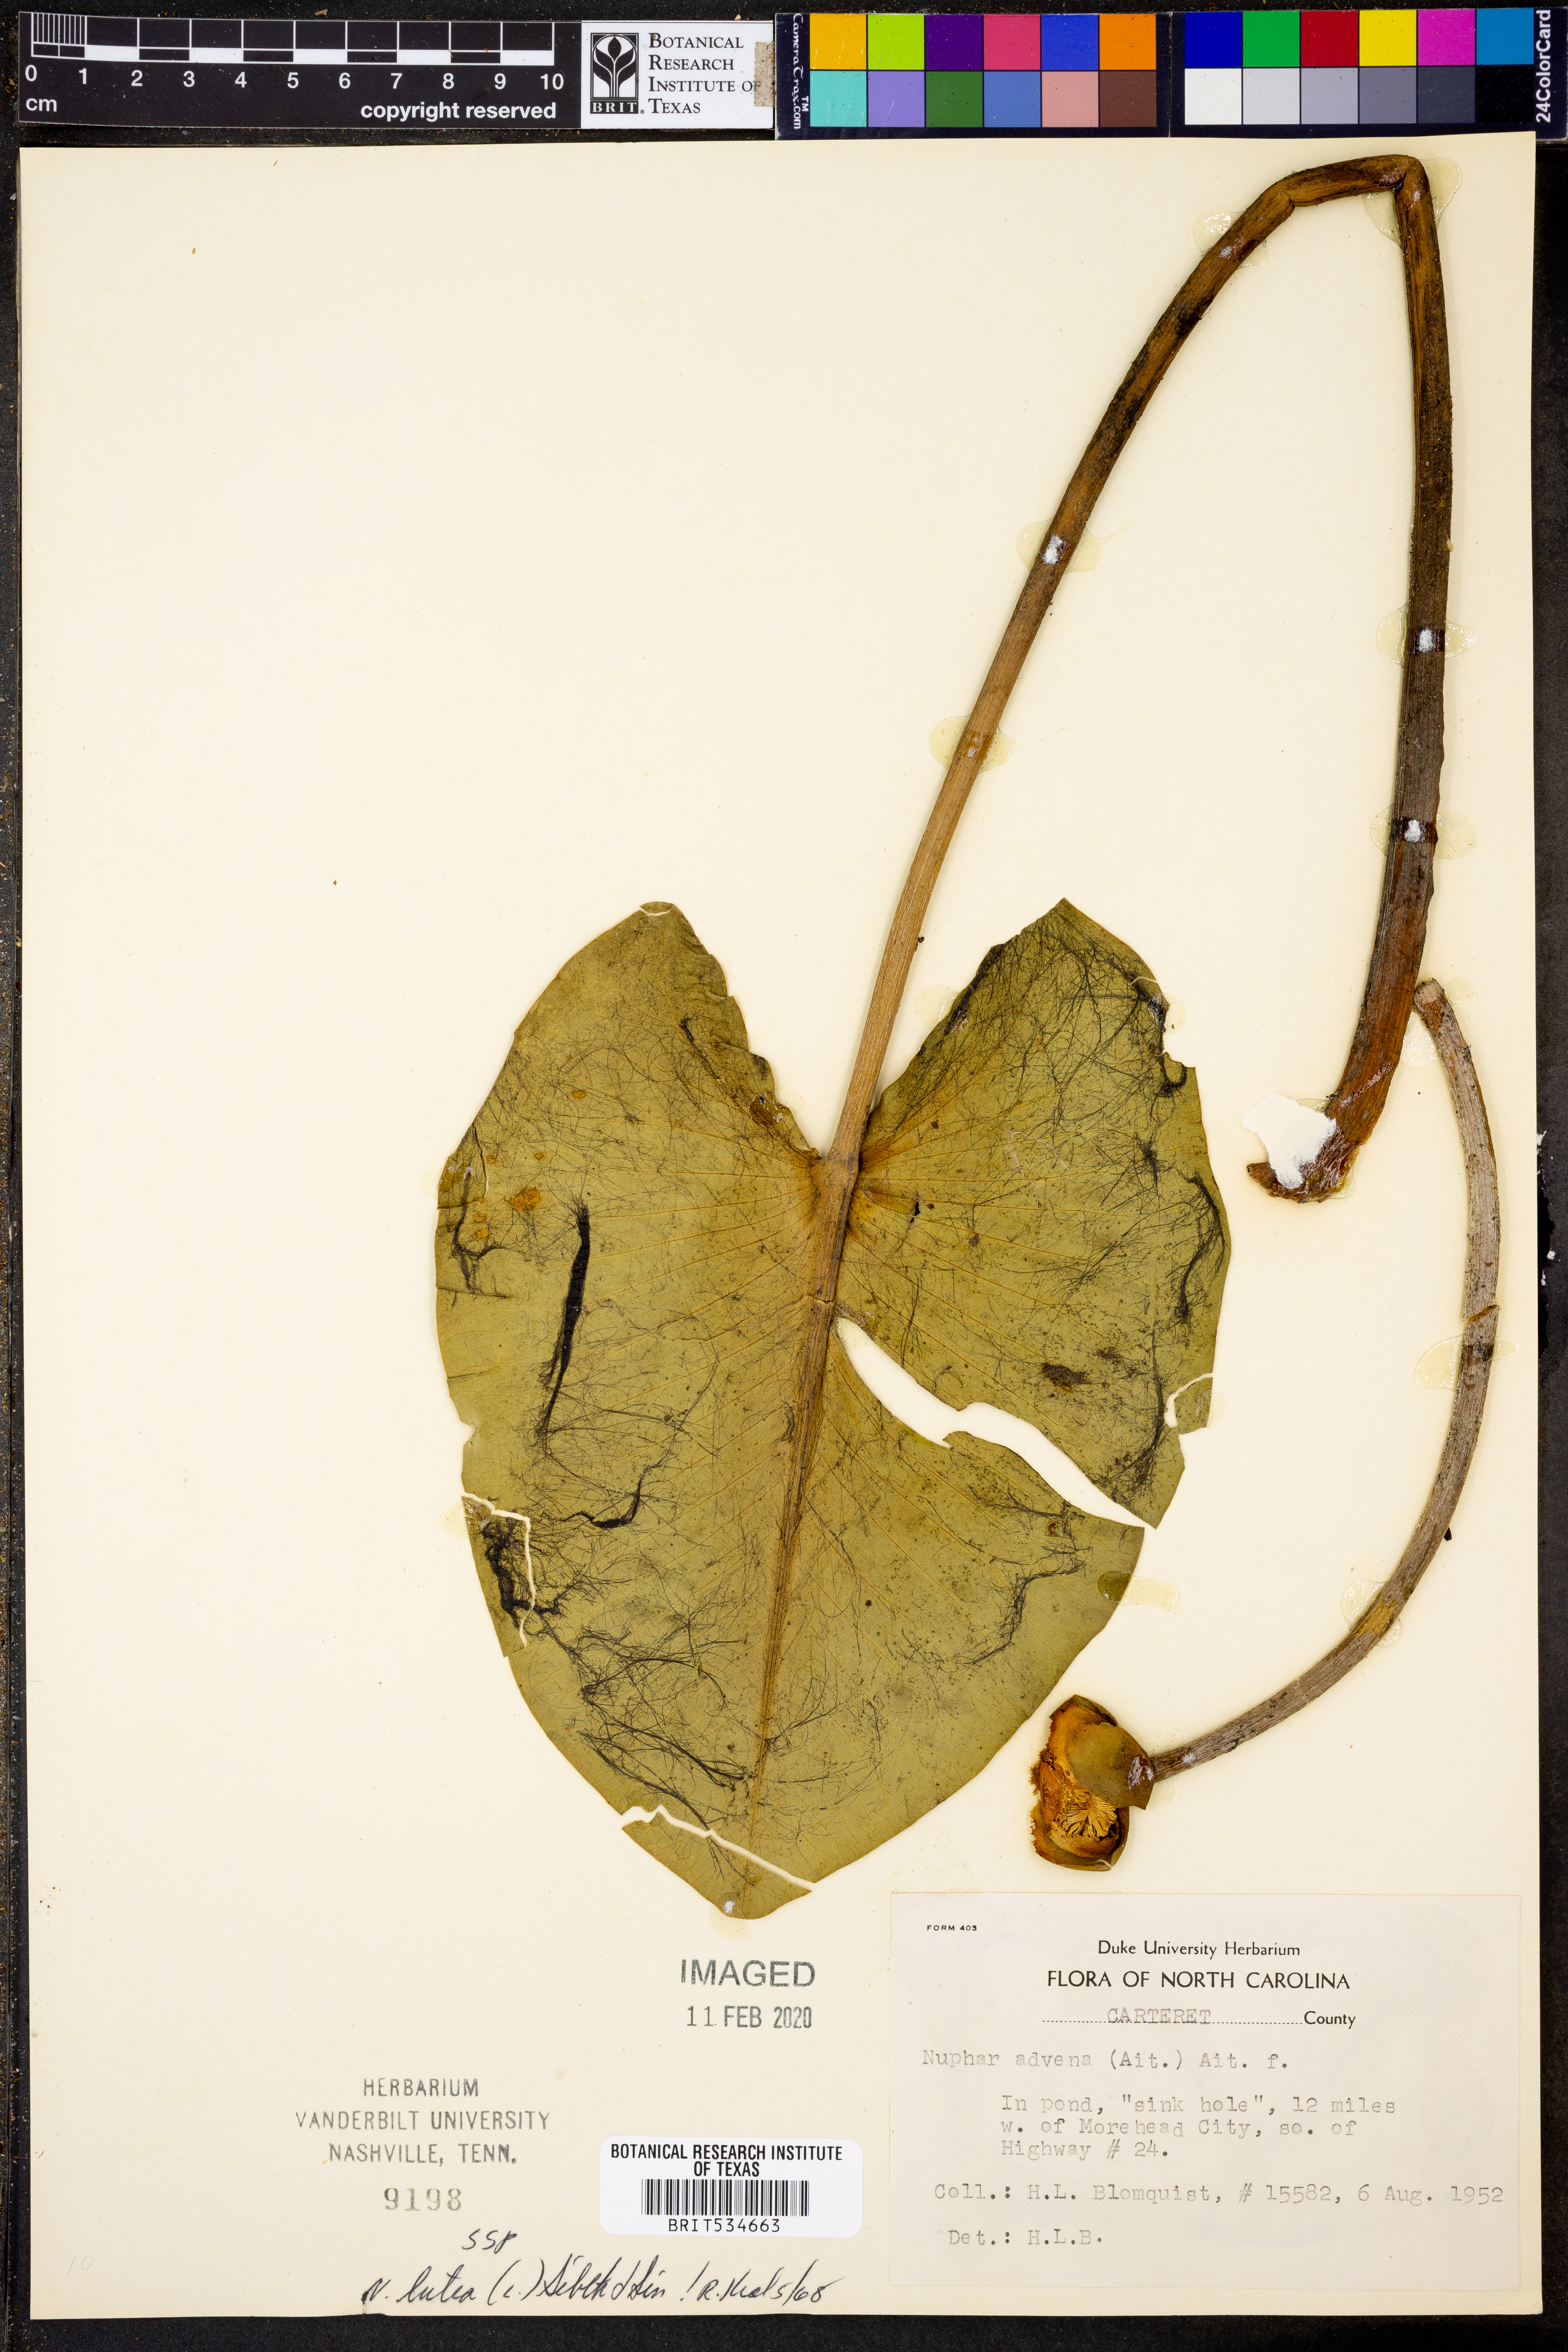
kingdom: Plantae
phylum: Tracheophyta
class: Magnoliopsida
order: Nymphaeales
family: Nymphaeaceae
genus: Nuphar
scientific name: Nuphar advena
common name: Spatter-dock
